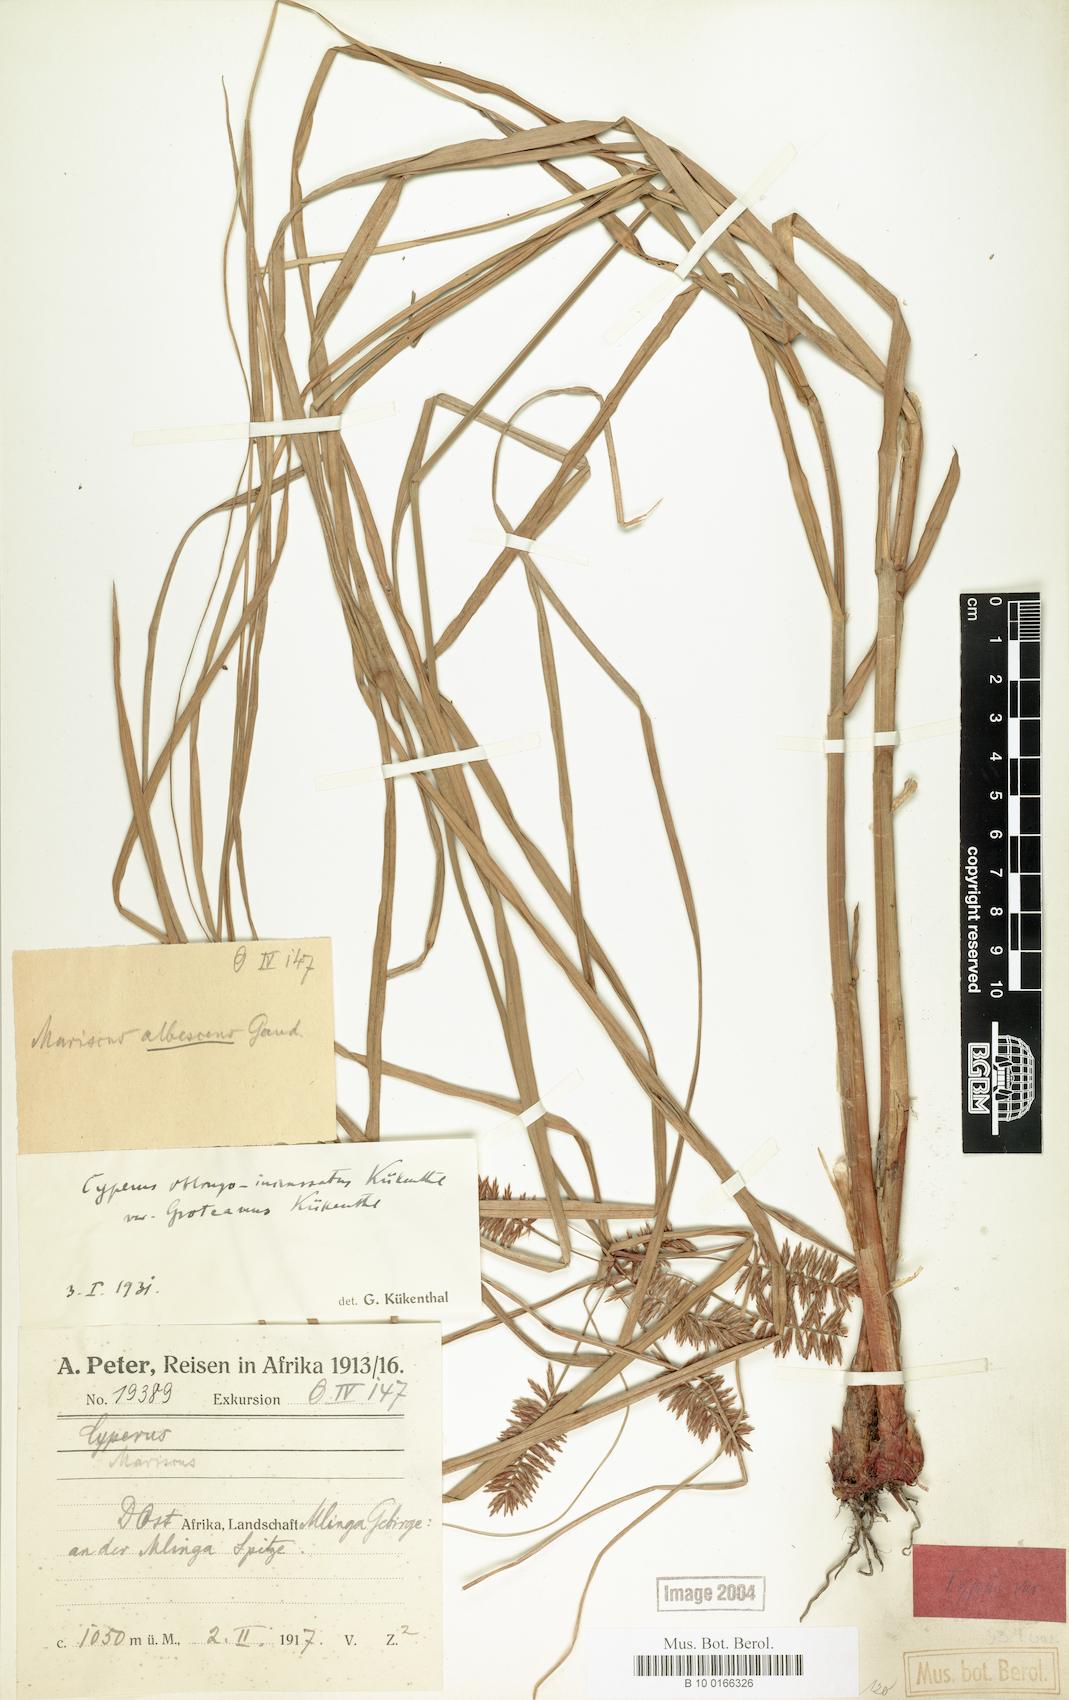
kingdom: Plantae
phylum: Tracheophyta
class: Liliopsida
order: Poales
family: Cyperaceae
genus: Cyperus
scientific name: Cyperus oblongoincrassatus
